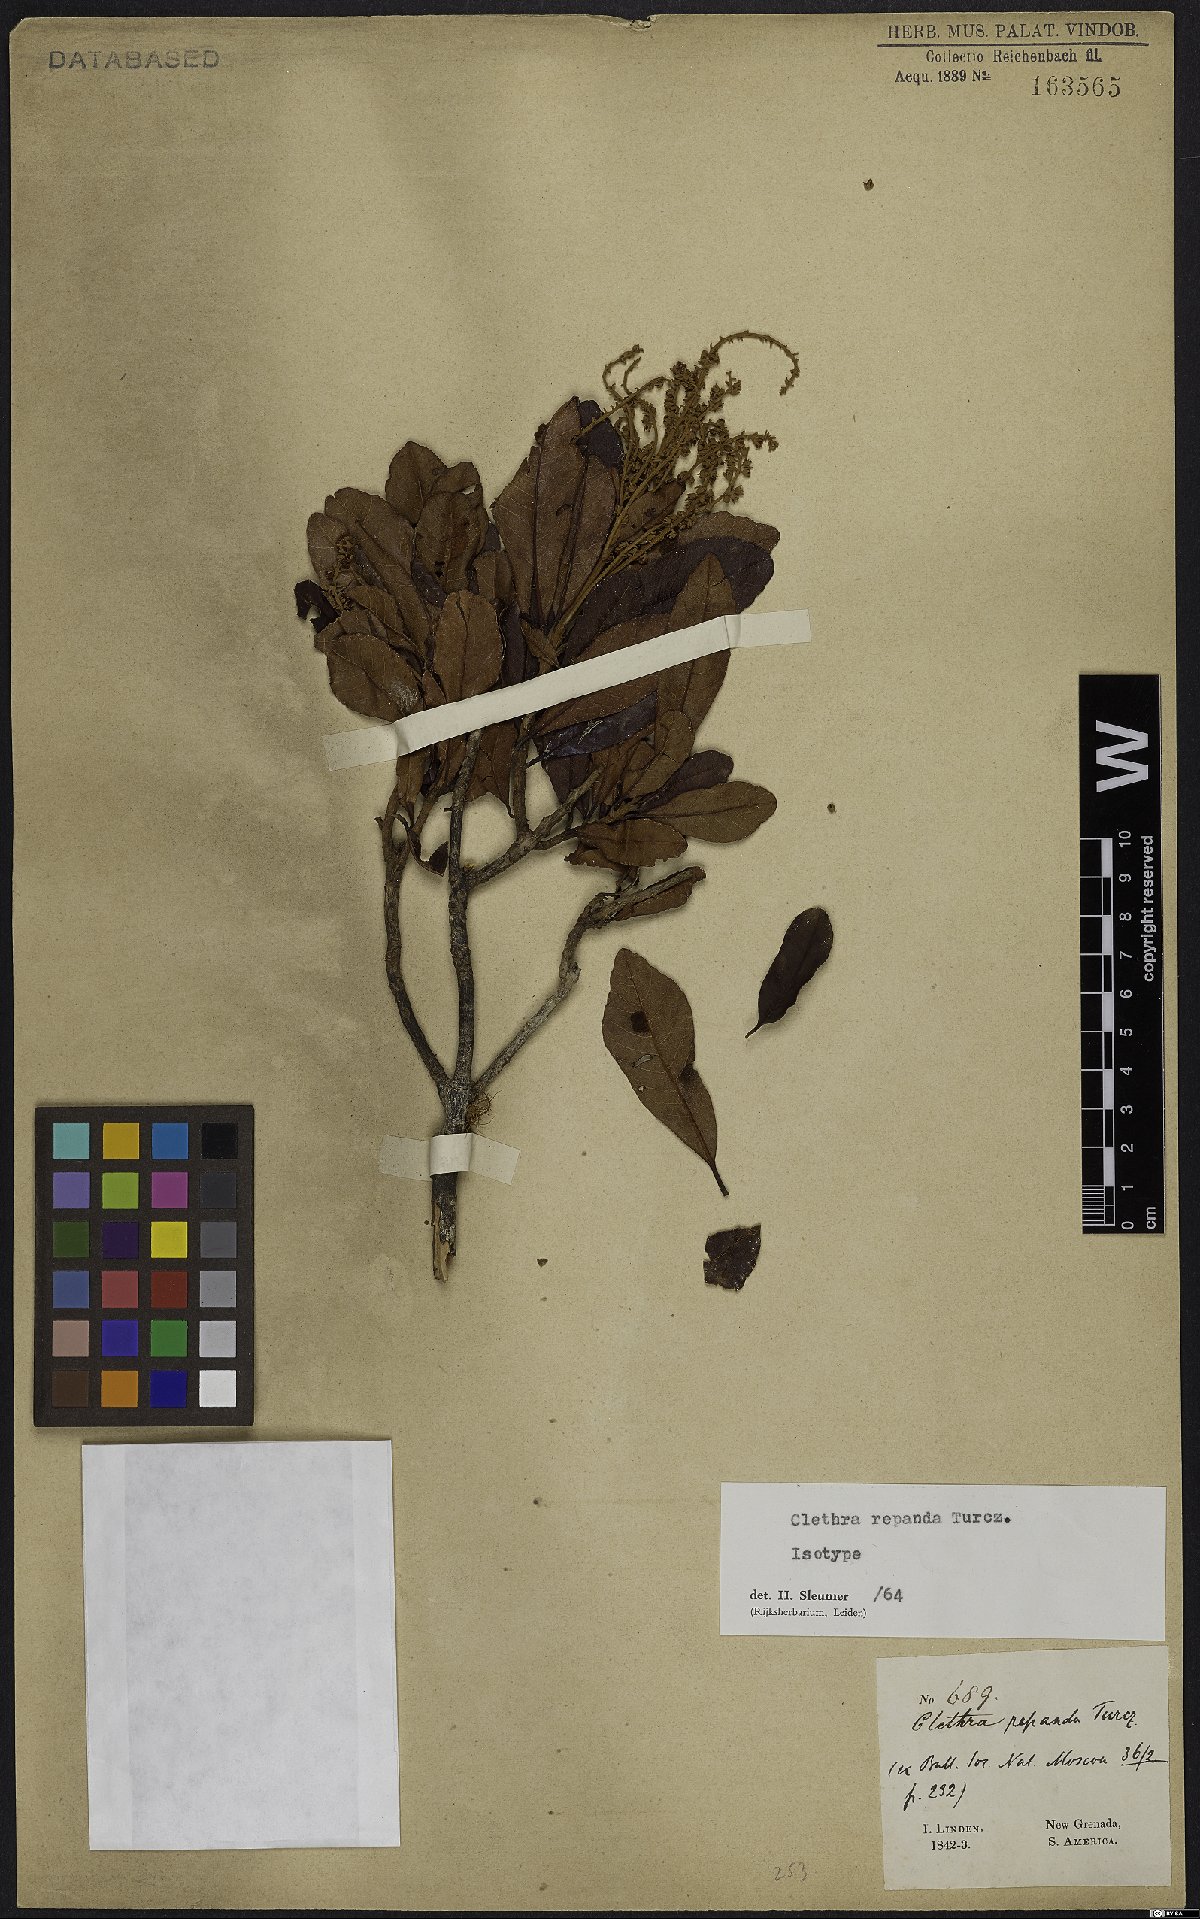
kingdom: Plantae
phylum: Tracheophyta
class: Magnoliopsida
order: Ericales
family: Clethraceae
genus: Clethra
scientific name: Clethra repanda
